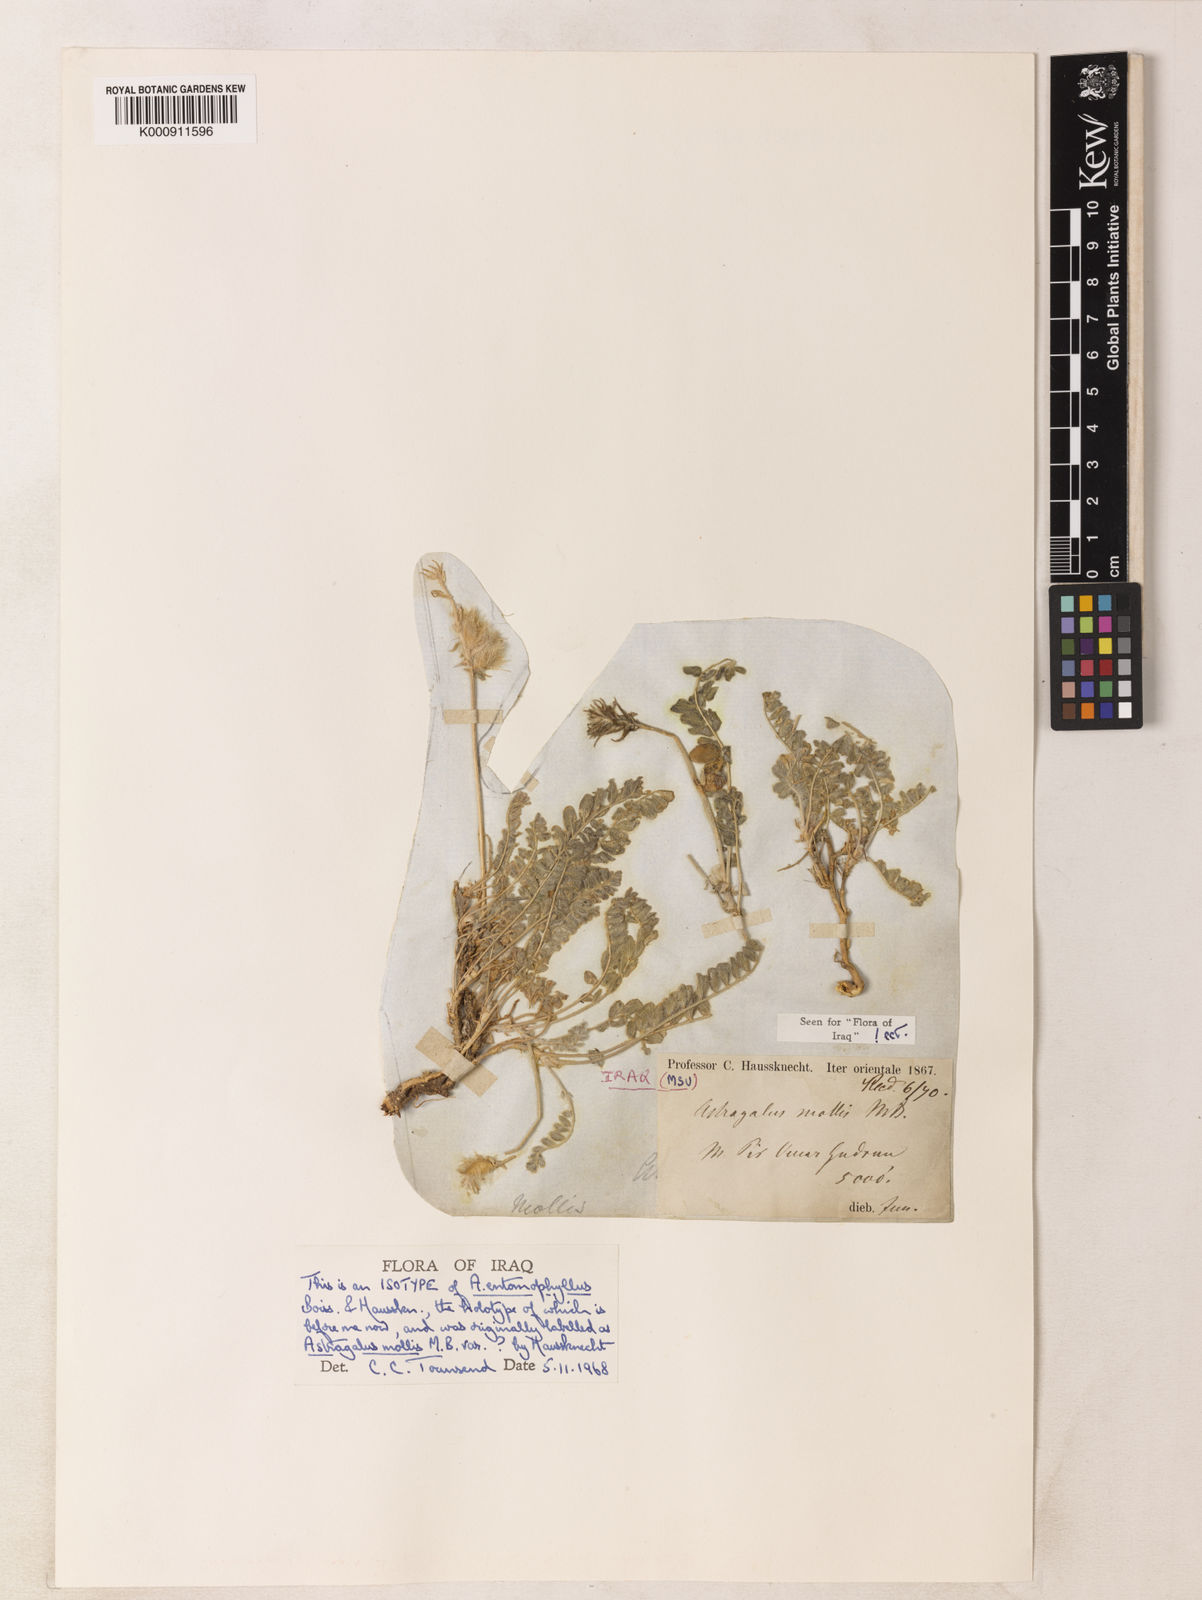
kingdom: Plantae
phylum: Tracheophyta
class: Magnoliopsida
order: Fabales
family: Fabaceae
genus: Astragalus
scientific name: Astragalus eriocarpus
